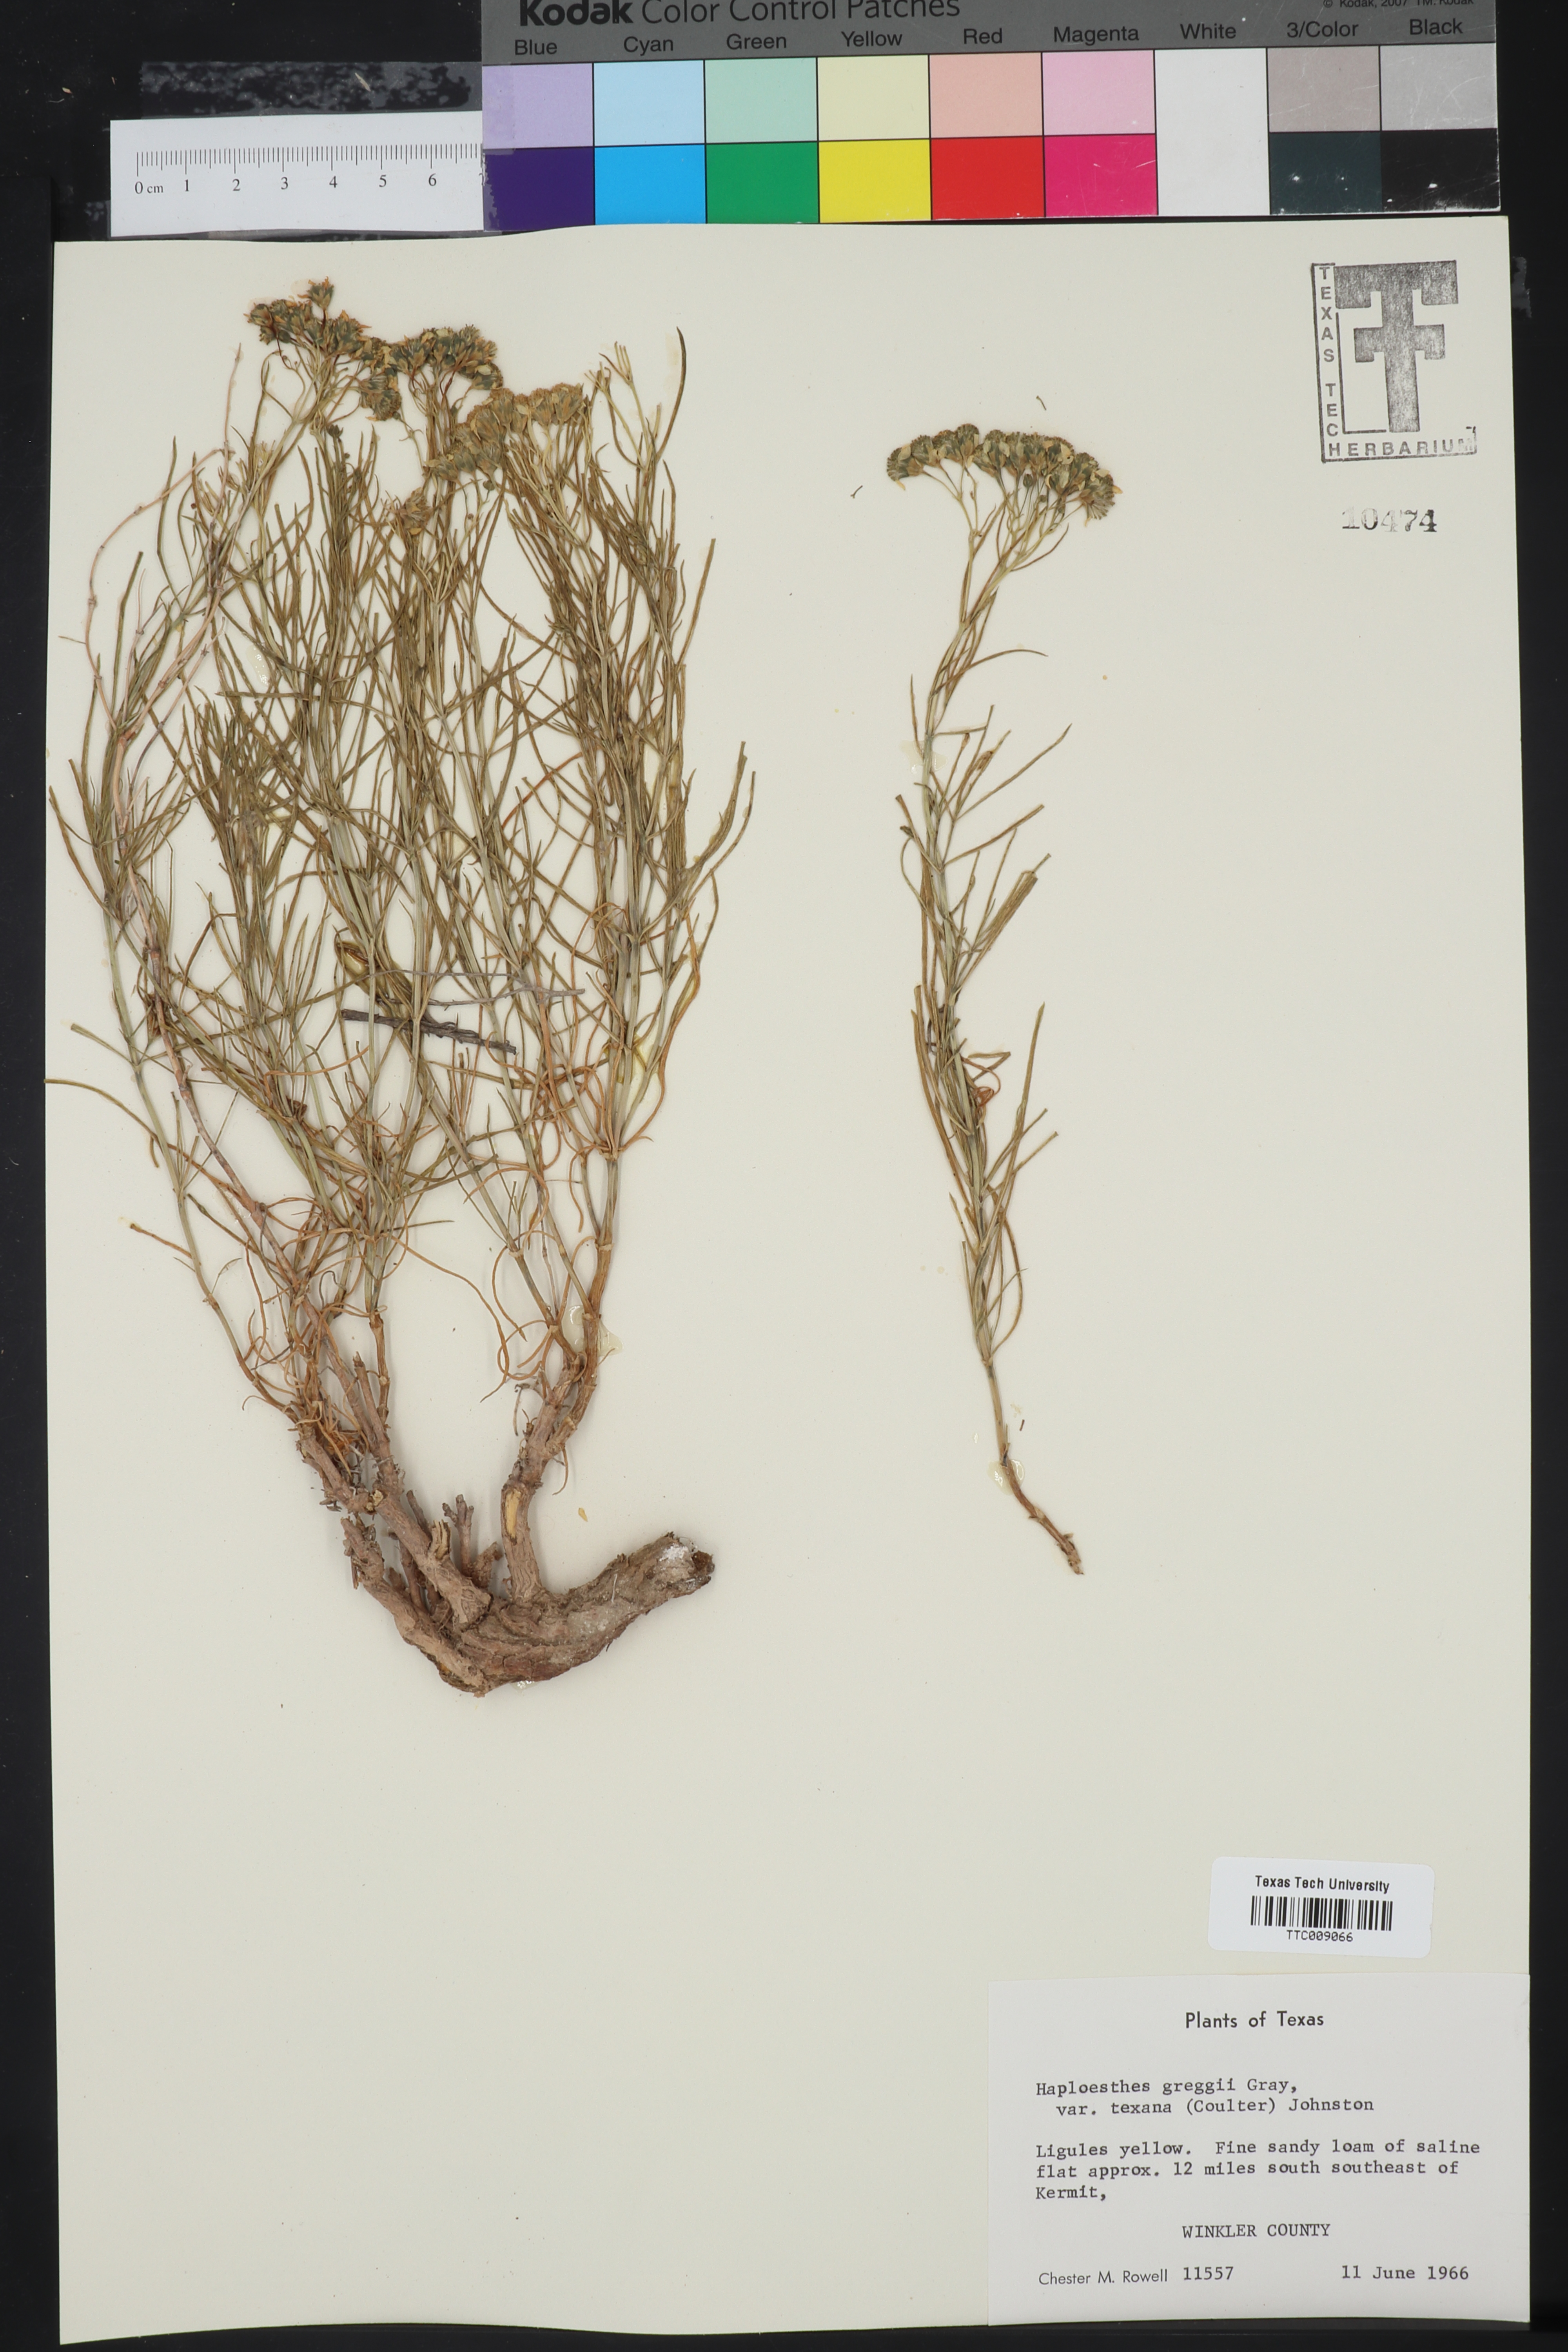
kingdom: Plantae
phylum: Tracheophyta
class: Magnoliopsida
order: Asterales
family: Asteraceae
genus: Haploesthes
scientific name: Haploesthes greggii
